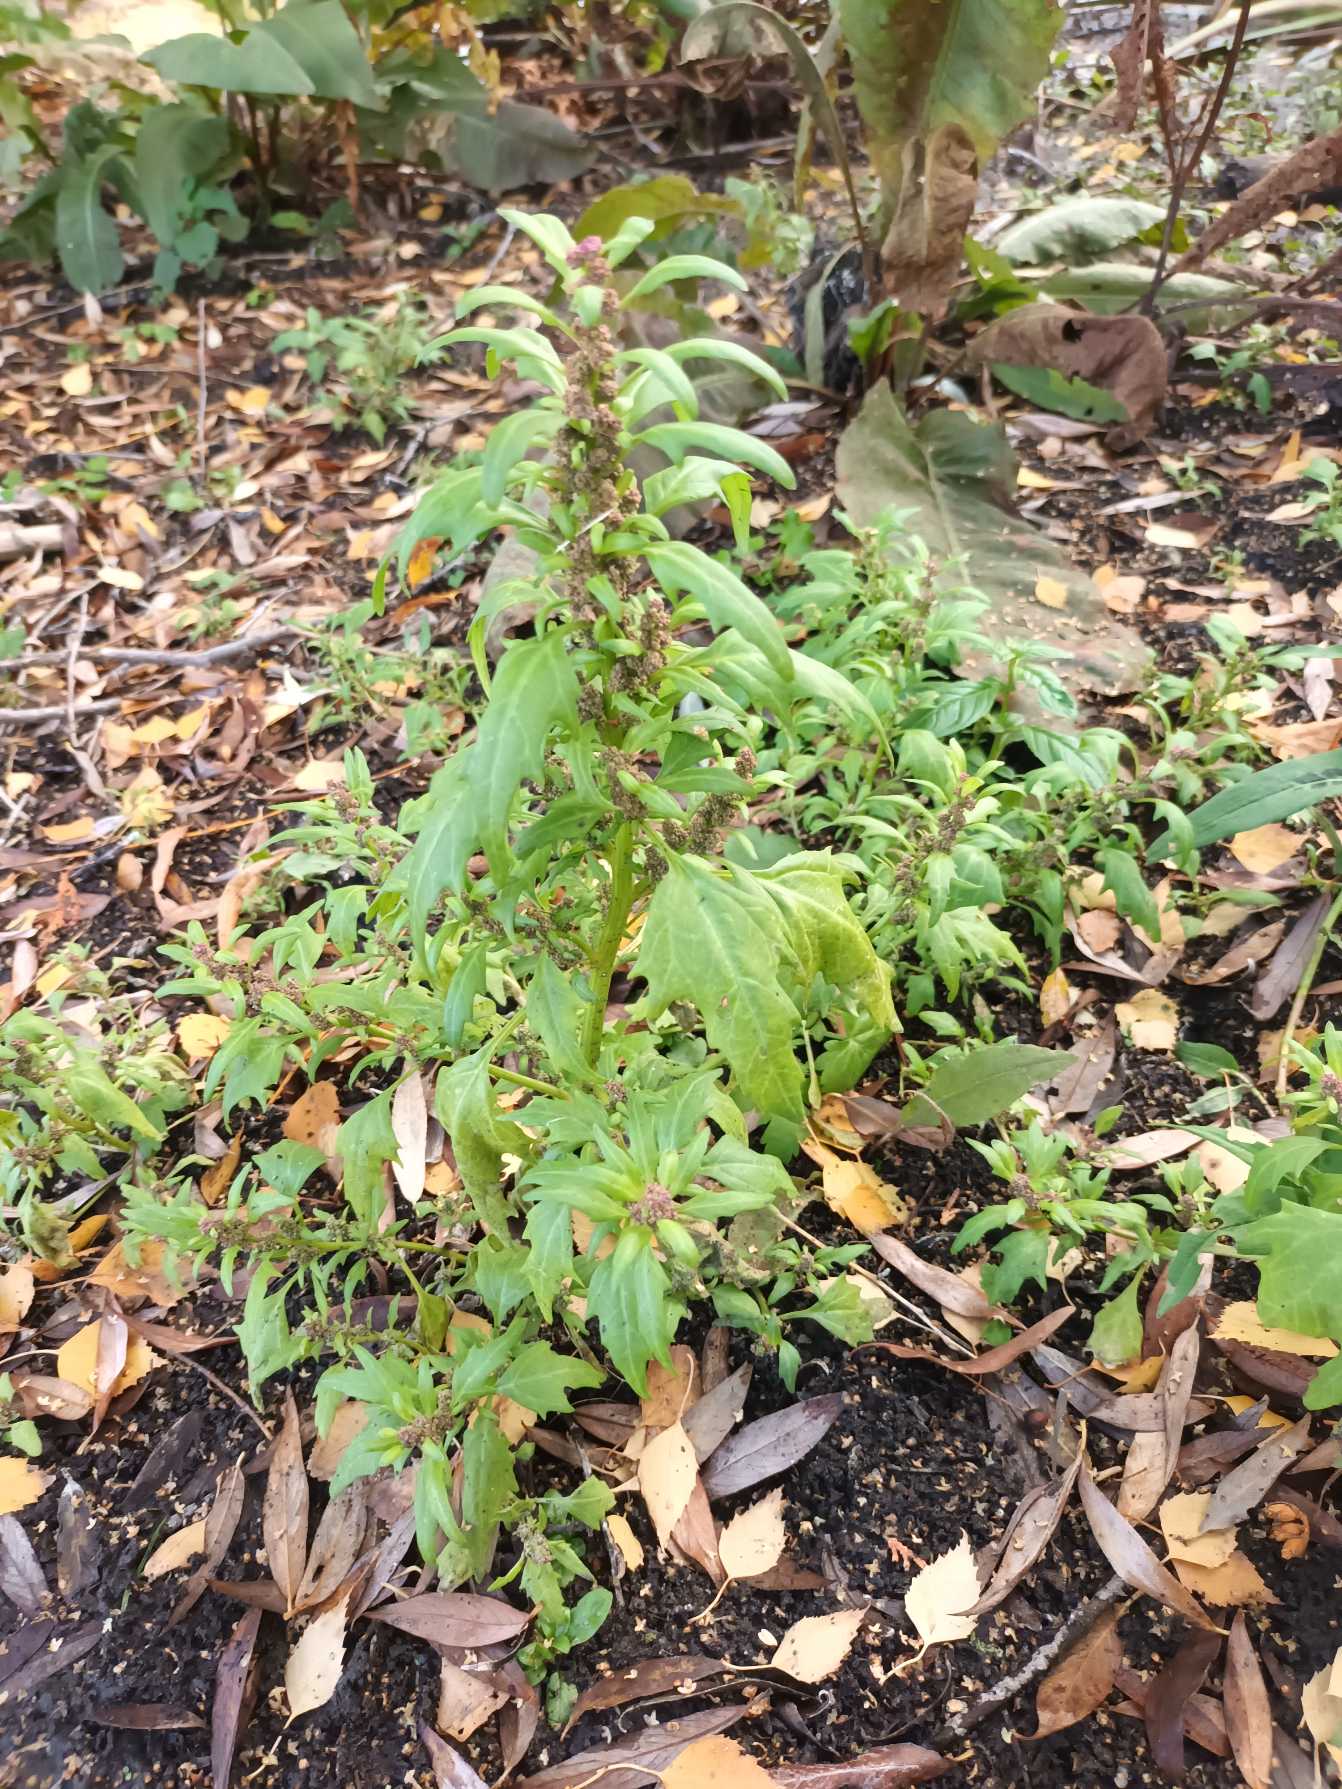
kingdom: Plantae
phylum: Tracheophyta
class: Magnoliopsida
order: Caryophyllales
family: Amaranthaceae
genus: Oxybasis
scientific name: Oxybasis rubra
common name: Rød gåsefod
